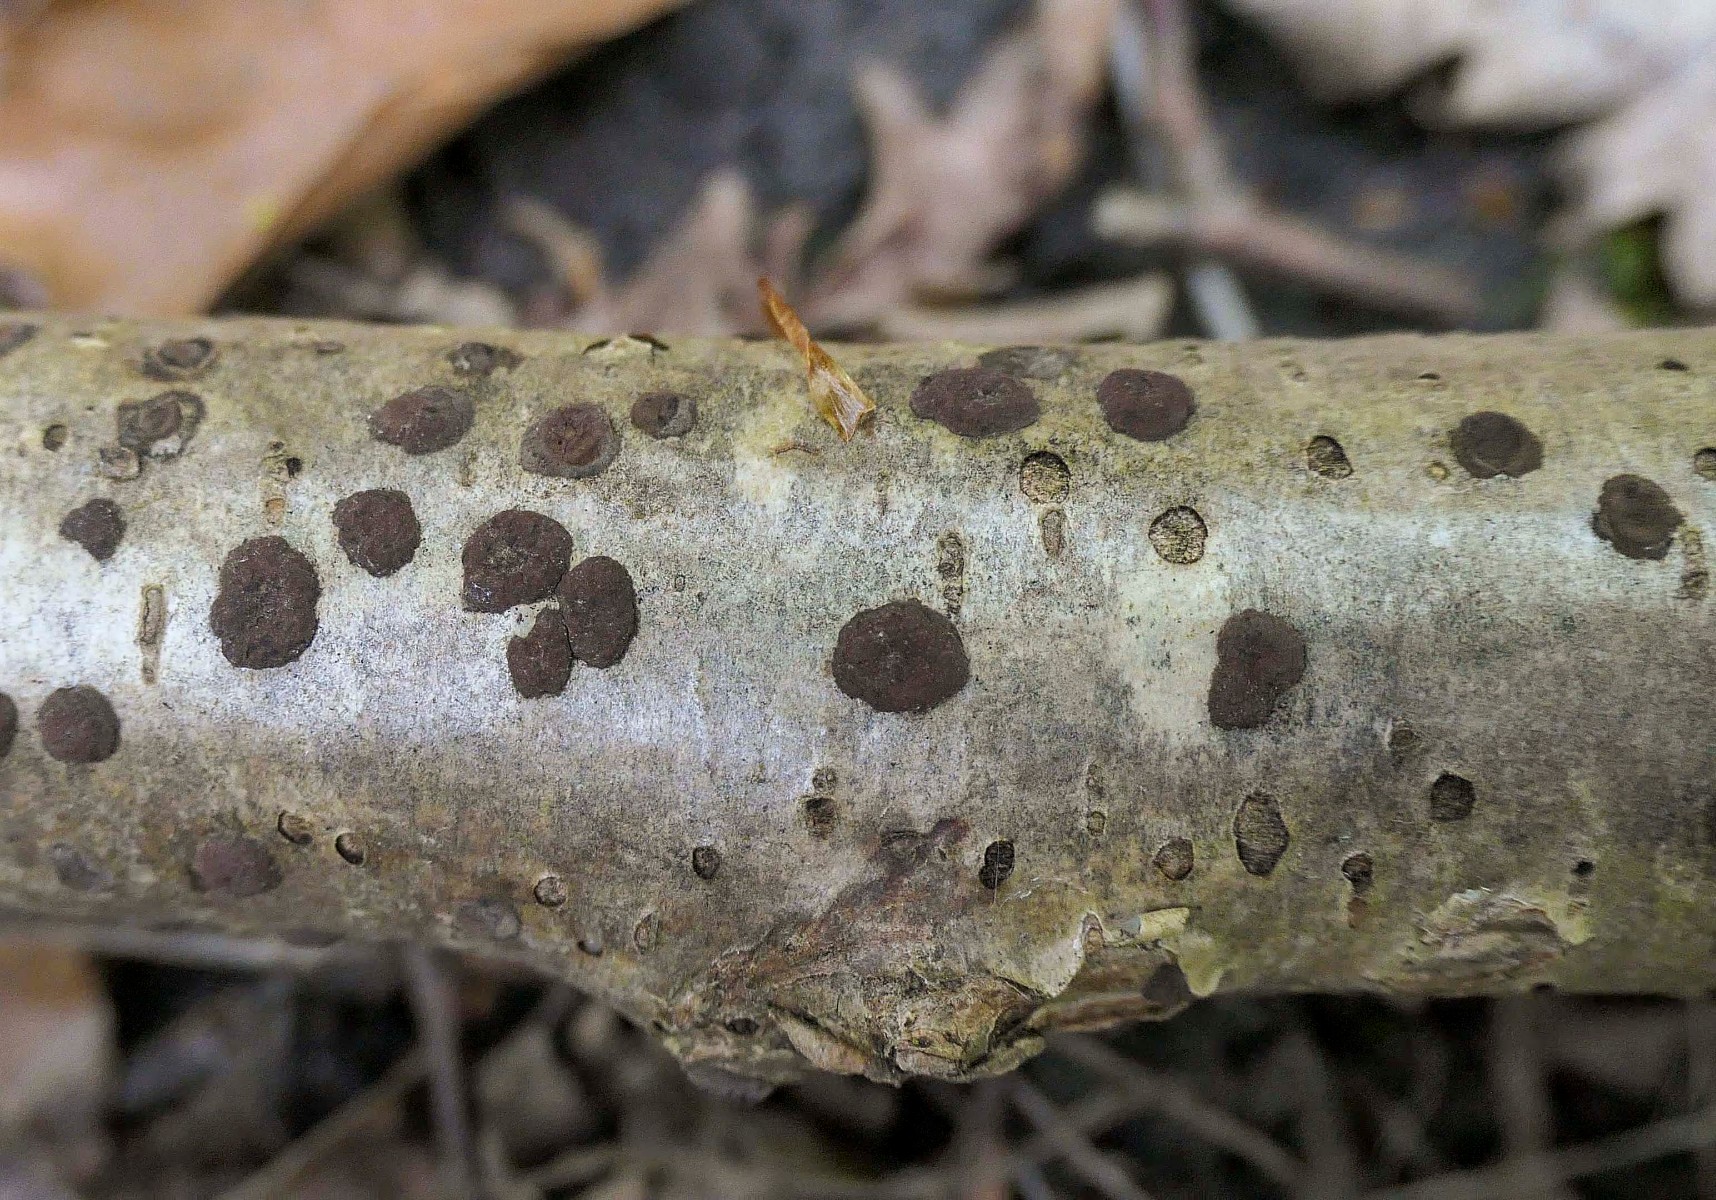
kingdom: Fungi
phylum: Ascomycota
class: Sordariomycetes
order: Xylariales
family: Hypoxylaceae
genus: Hypoxylon
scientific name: Hypoxylon fuscum
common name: kegleformet kulbær
